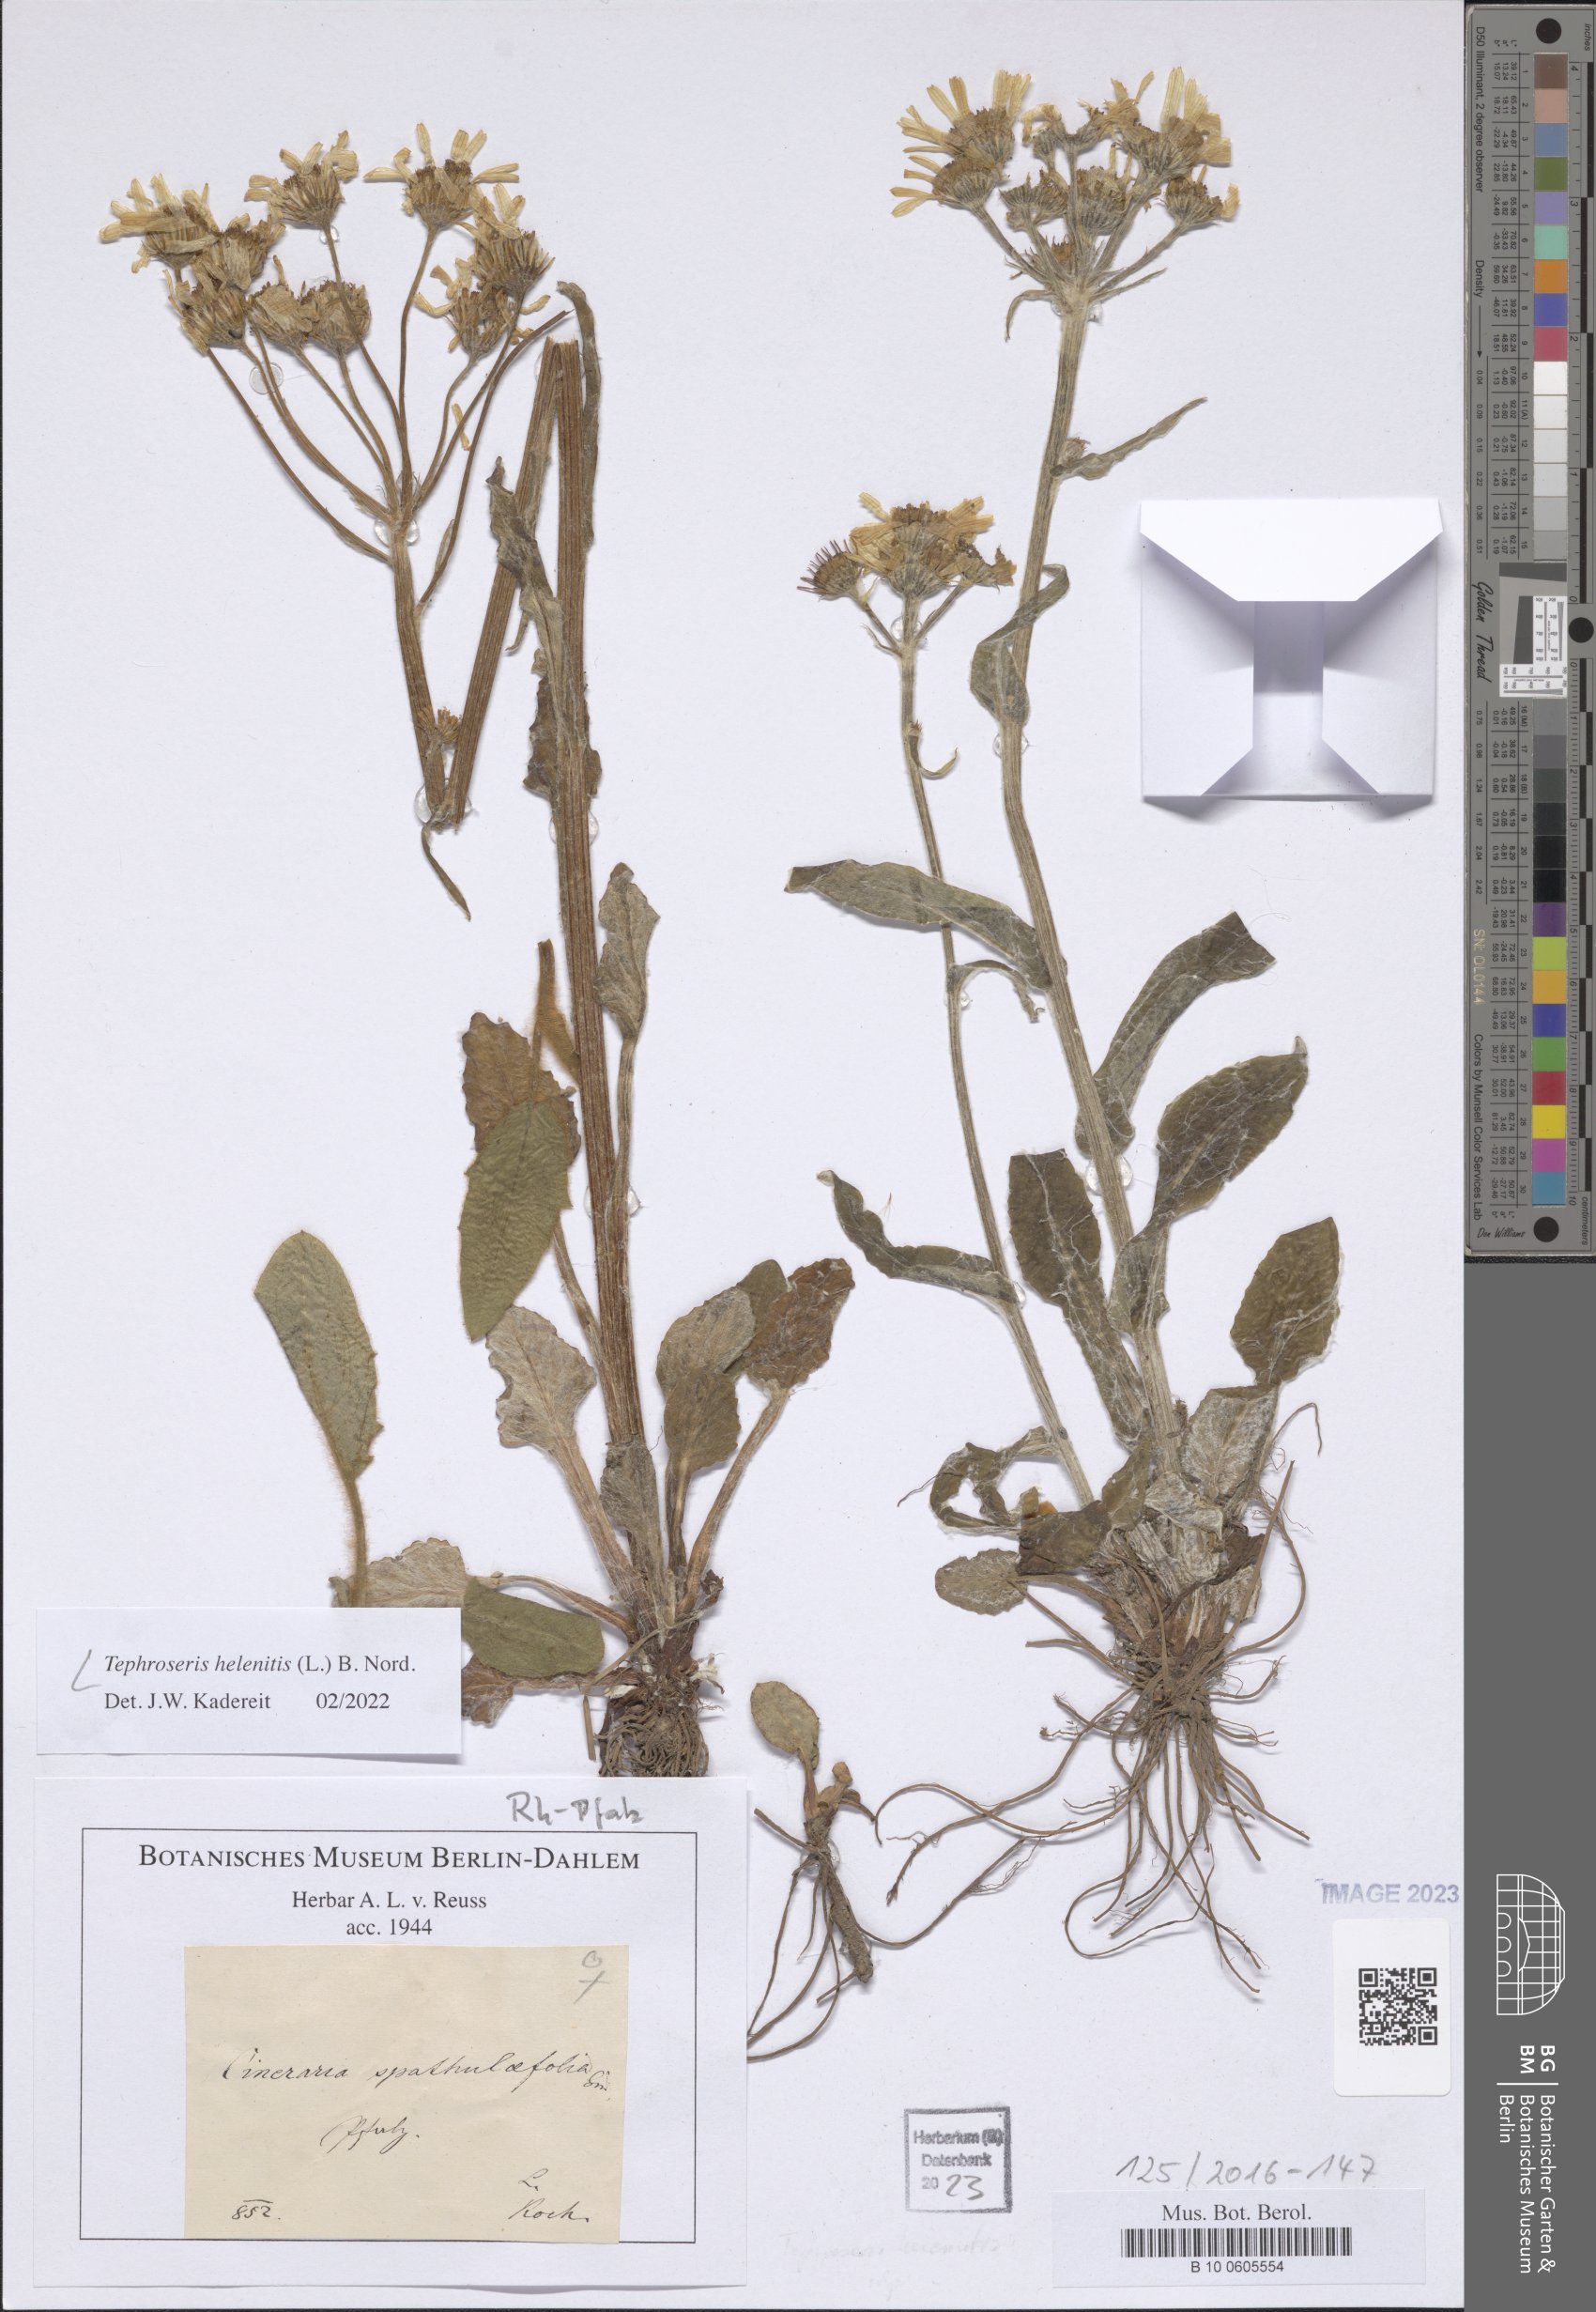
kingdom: Plantae
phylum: Tracheophyta
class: Magnoliopsida
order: Asterales
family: Asteraceae
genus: Tephroseris
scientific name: Tephroseris helenitis
